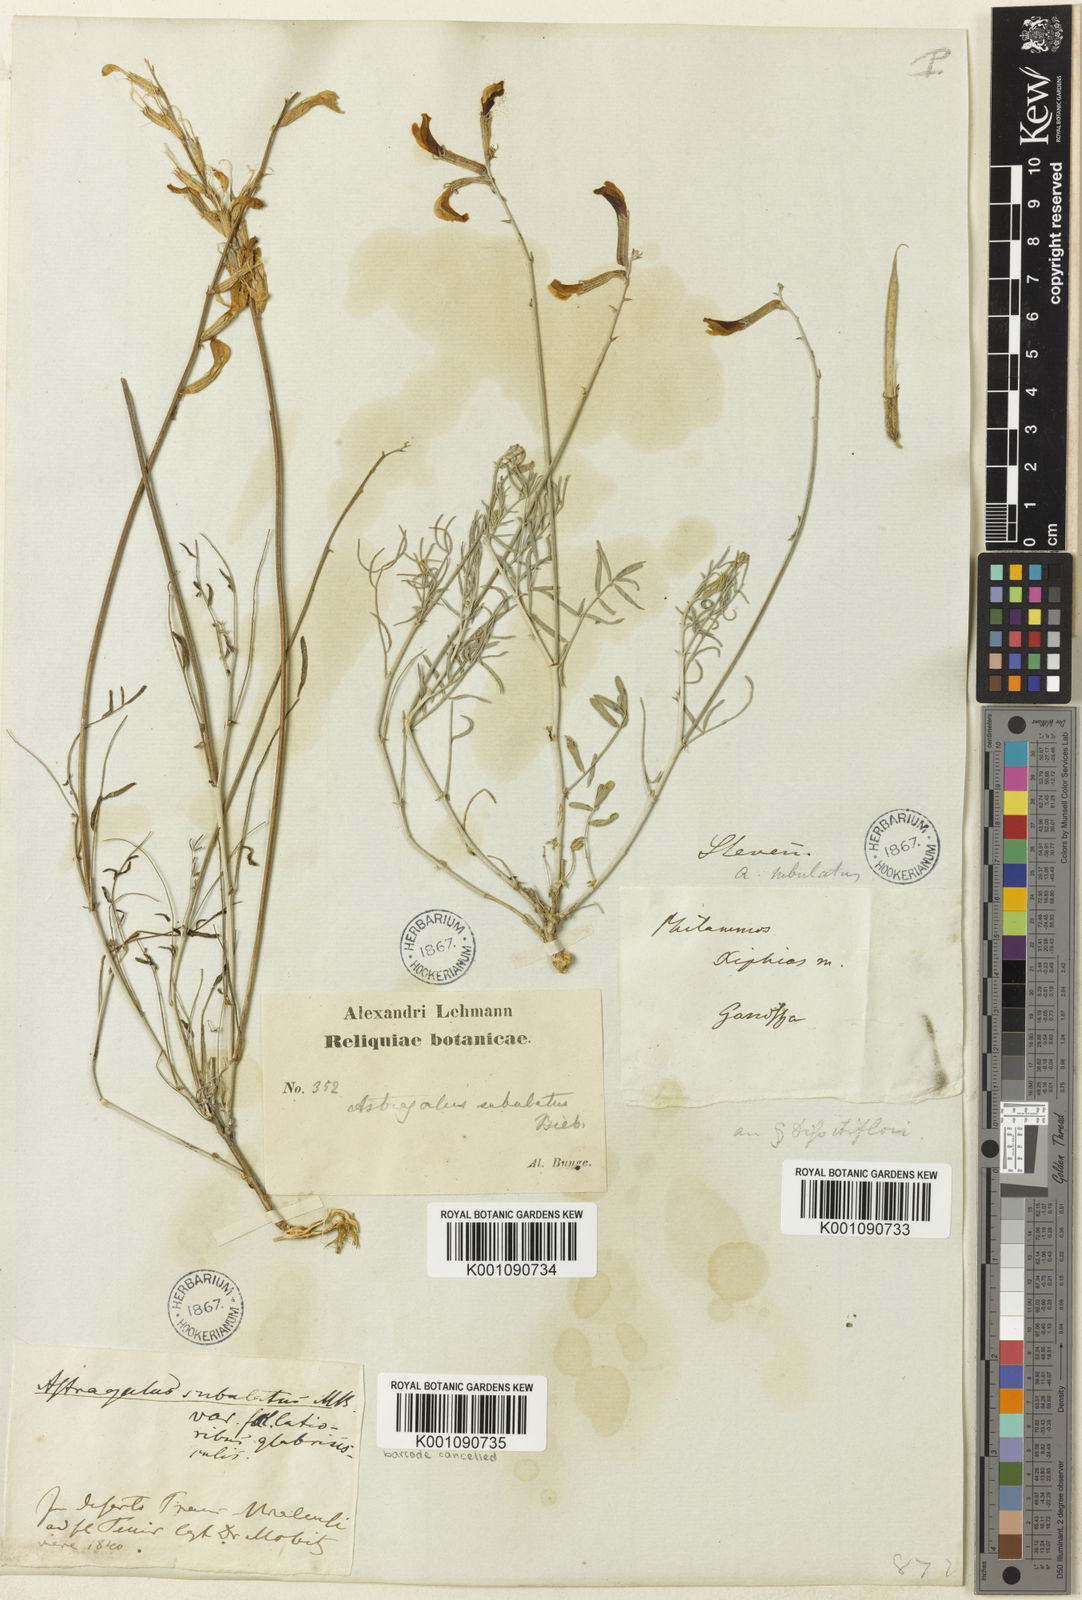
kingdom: Plantae
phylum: Tracheophyta
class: Magnoliopsida
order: Fabales
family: Fabaceae
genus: Astragalus
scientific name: Astragalus
